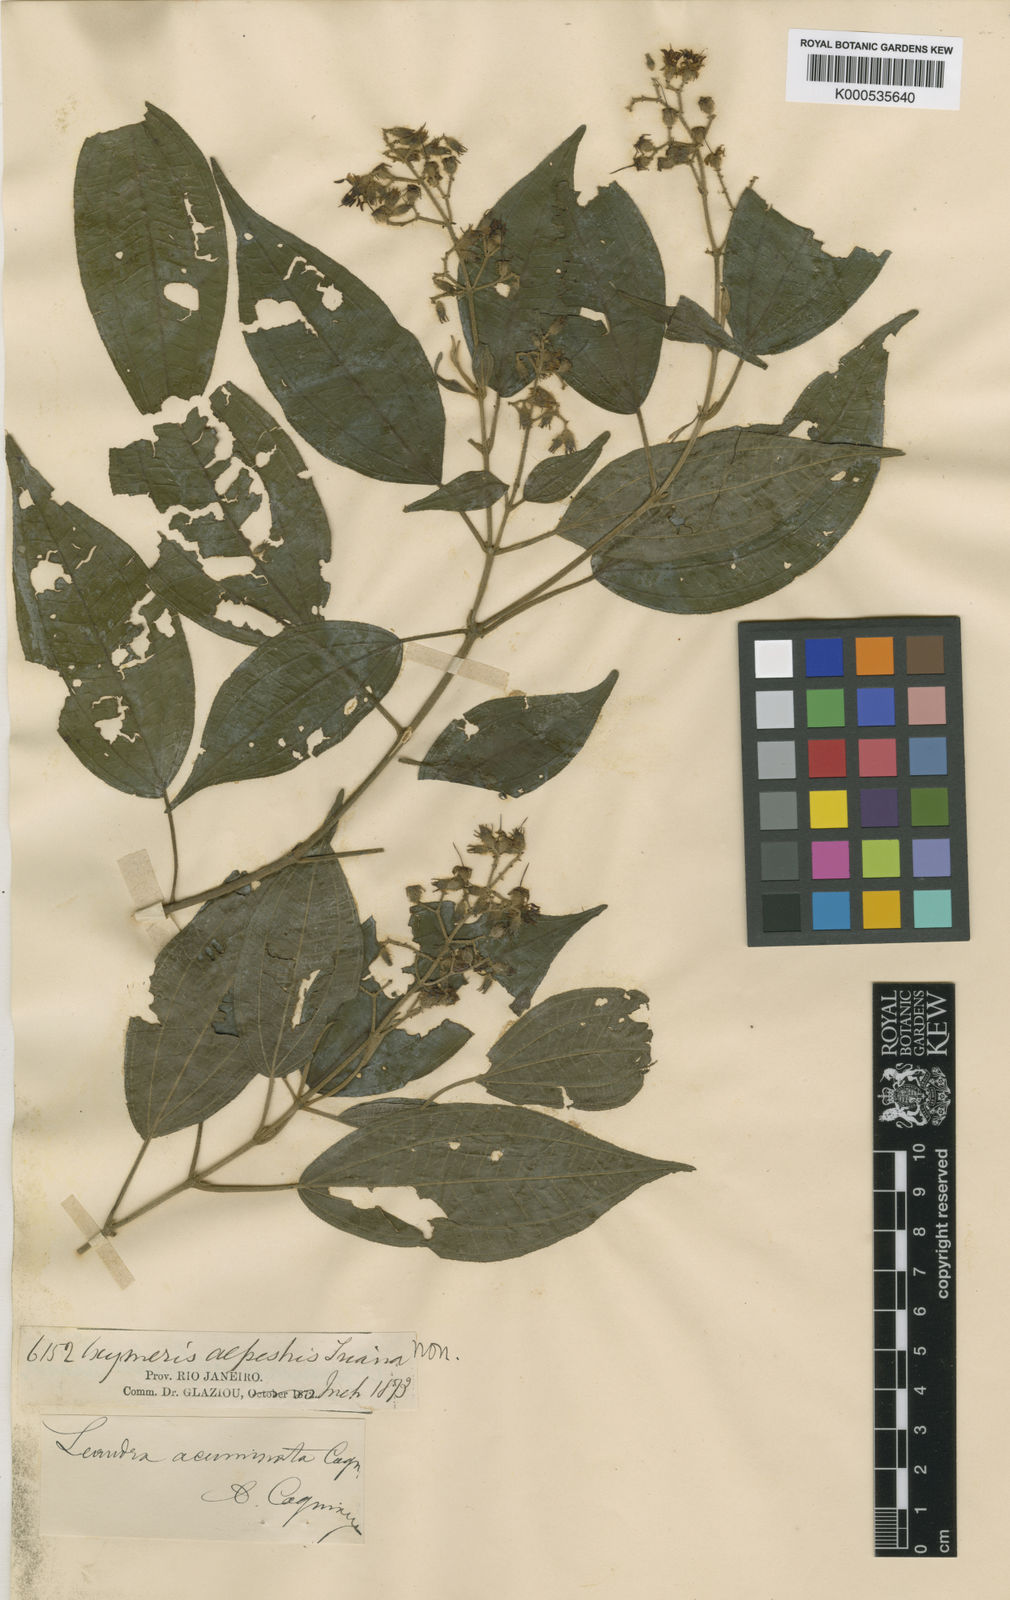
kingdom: Plantae
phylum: Tracheophyta
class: Magnoliopsida
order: Myrtales
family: Melastomataceae
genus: Miconia
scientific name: Miconia leacuminata
